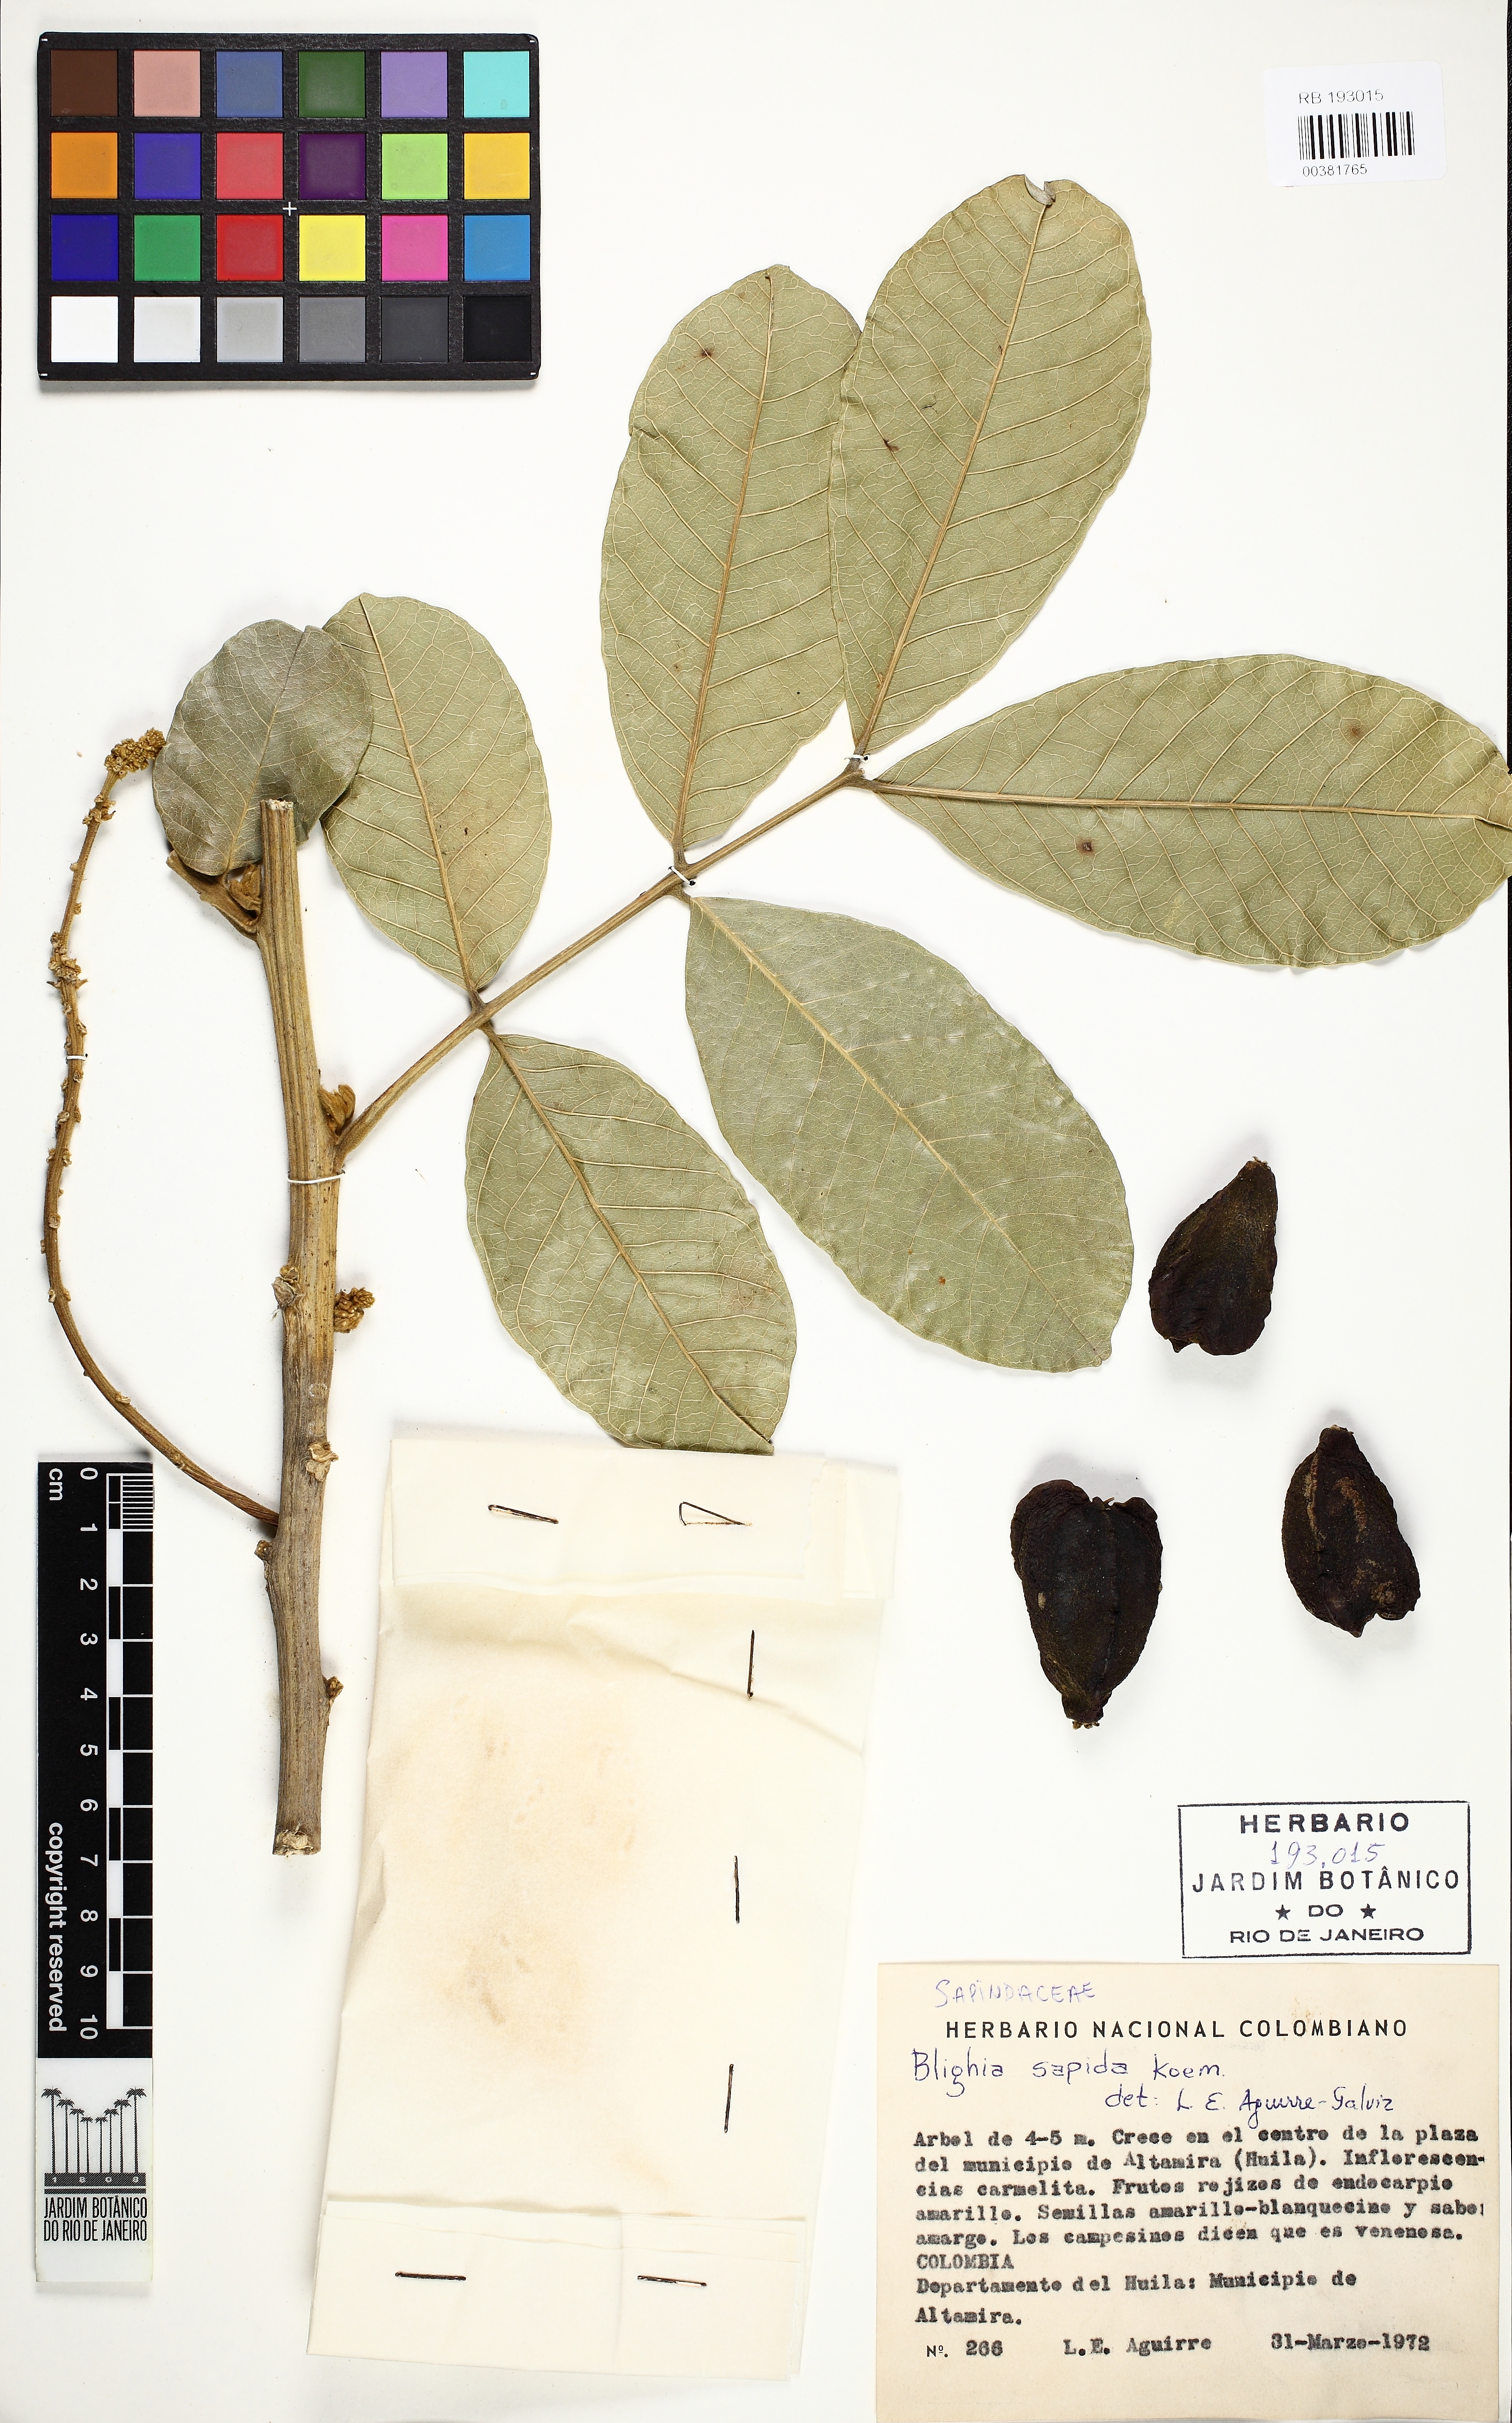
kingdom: Plantae
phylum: Tracheophyta
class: Magnoliopsida
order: Sapindales
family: Sapindaceae
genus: Blighia
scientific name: Blighia sapida
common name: Akee
